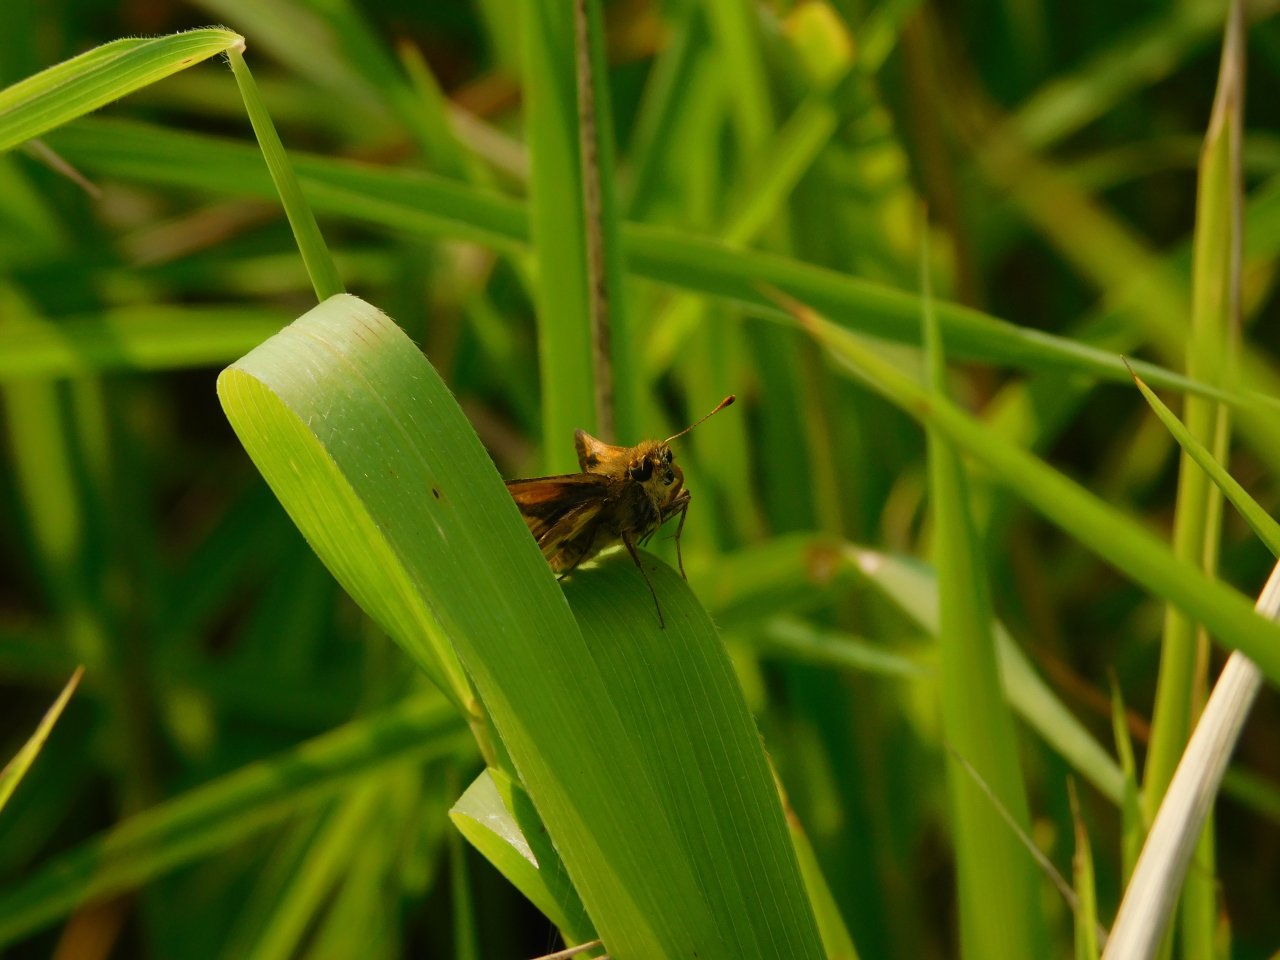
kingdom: Animalia
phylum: Arthropoda
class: Insecta
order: Lepidoptera
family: Hesperiidae
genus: Polites
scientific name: Polites coras
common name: Peck's Skipper
